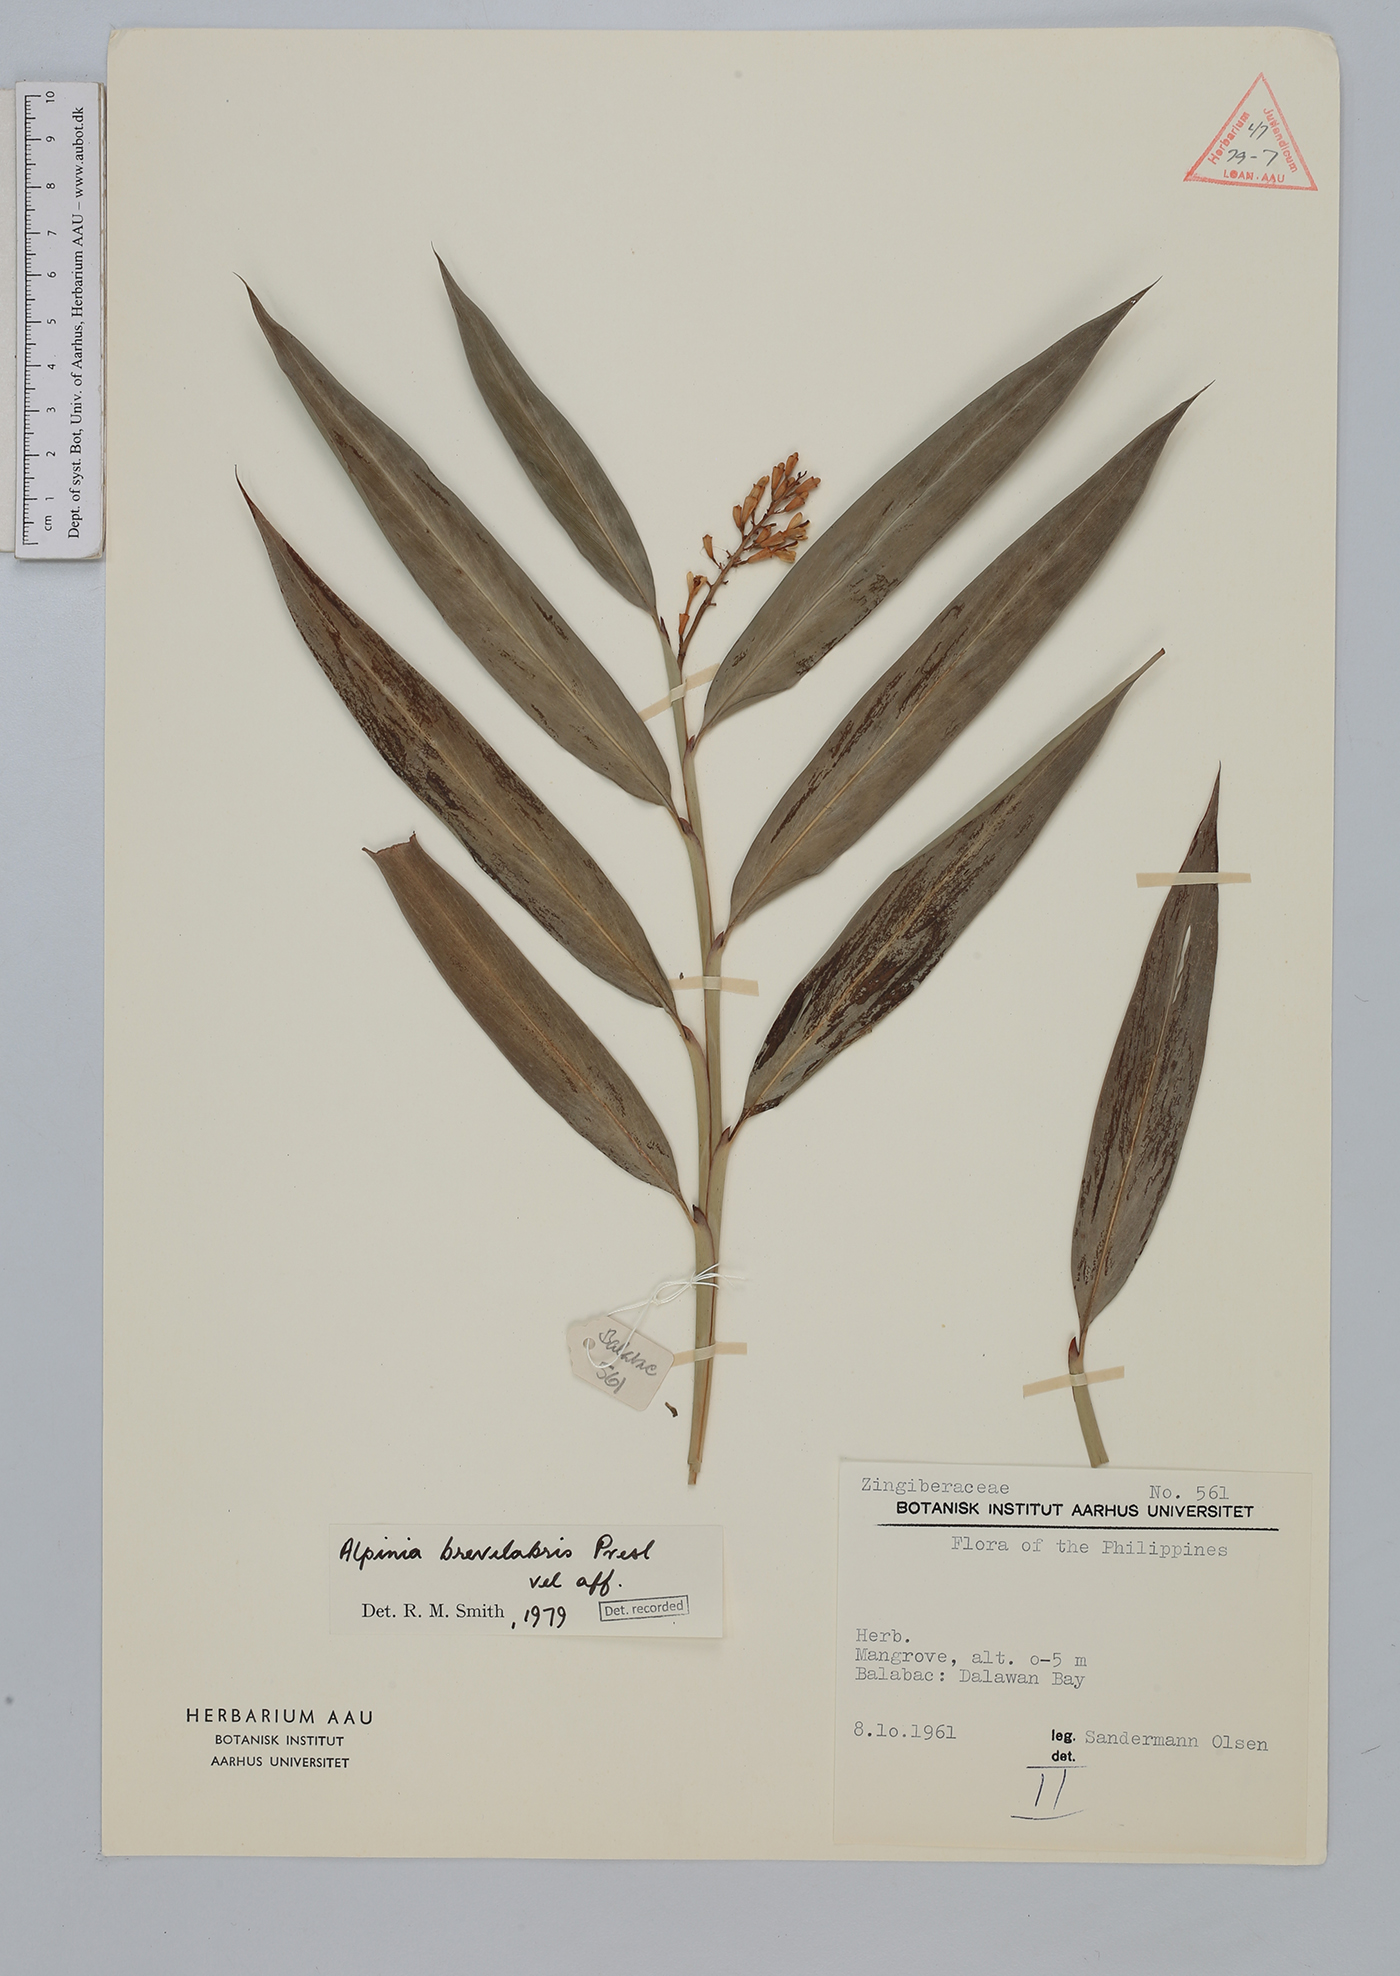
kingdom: Plantae
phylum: Tracheophyta
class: Liliopsida
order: Zingiberales
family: Zingiberaceae
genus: Alpinia
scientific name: Alpinia brevilabris
